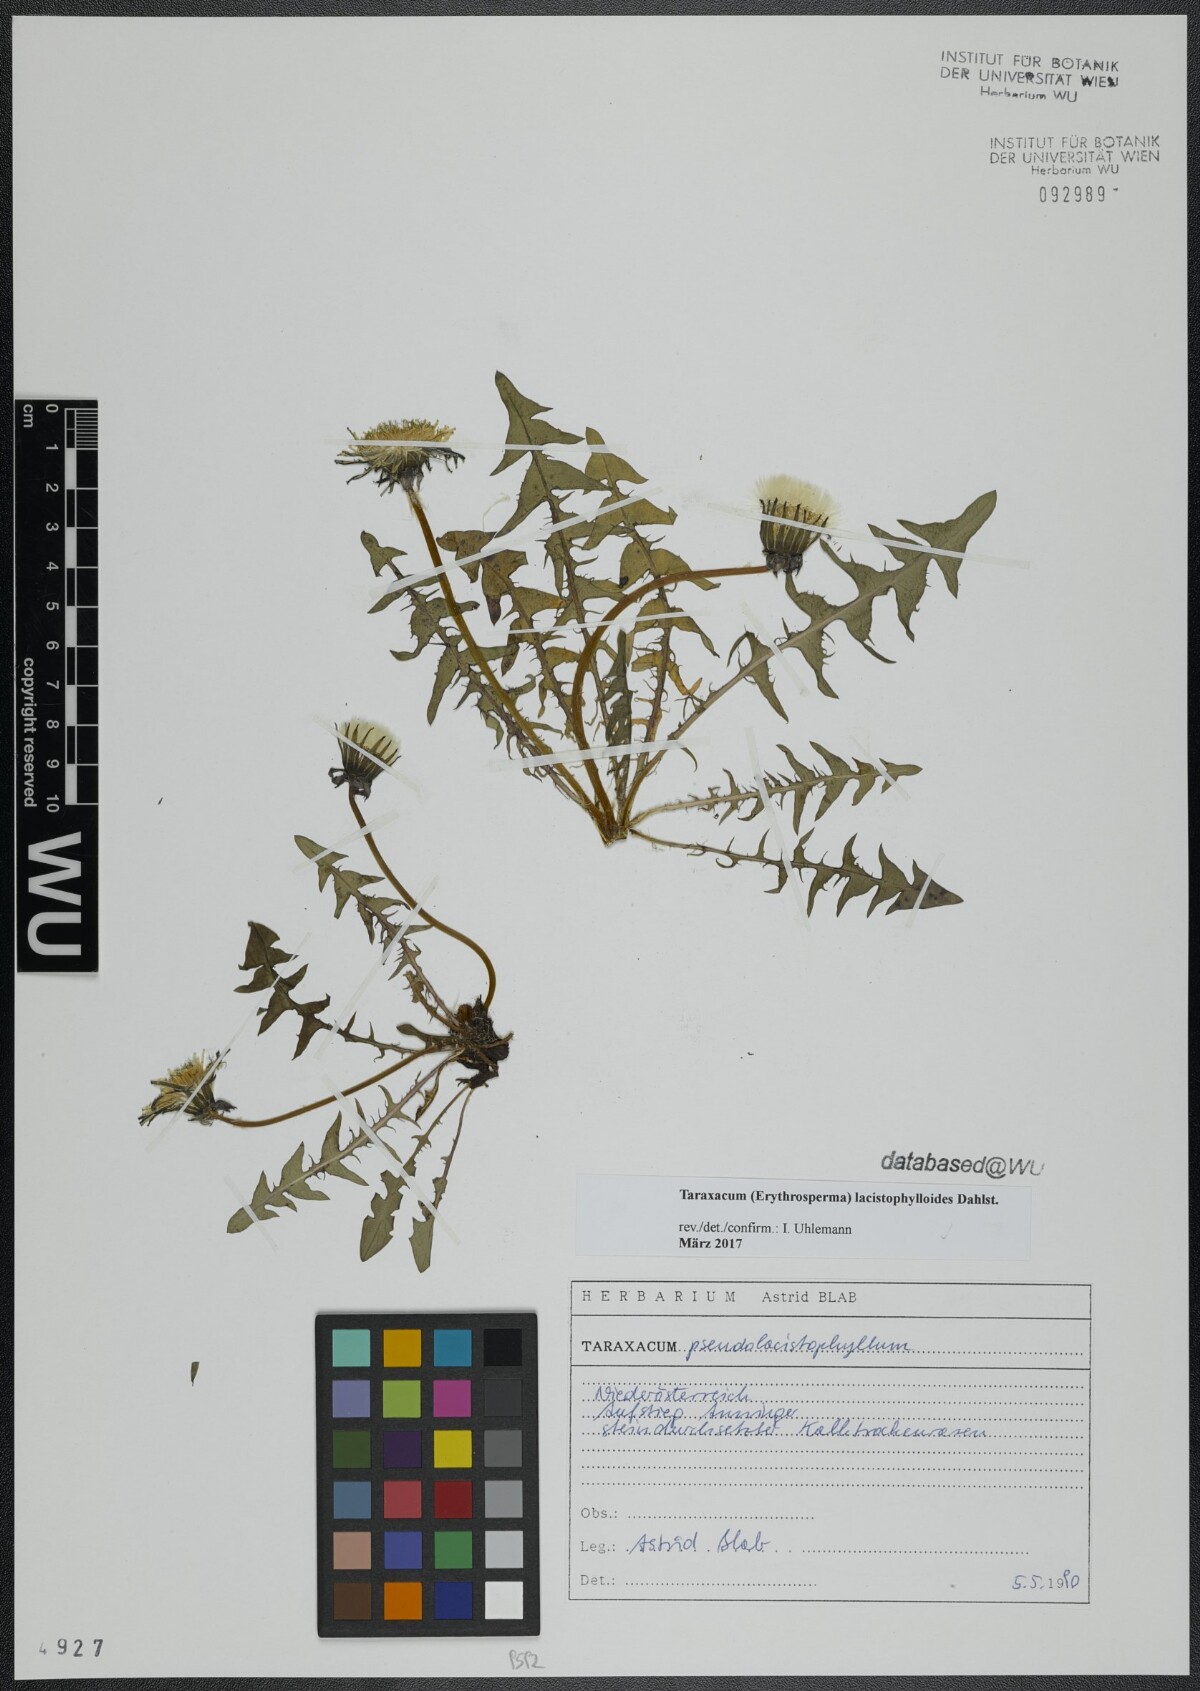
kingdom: Plantae
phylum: Tracheophyta
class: Magnoliopsida
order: Asterales
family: Asteraceae
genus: Taraxacum
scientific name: Taraxacum lacistophylloides
